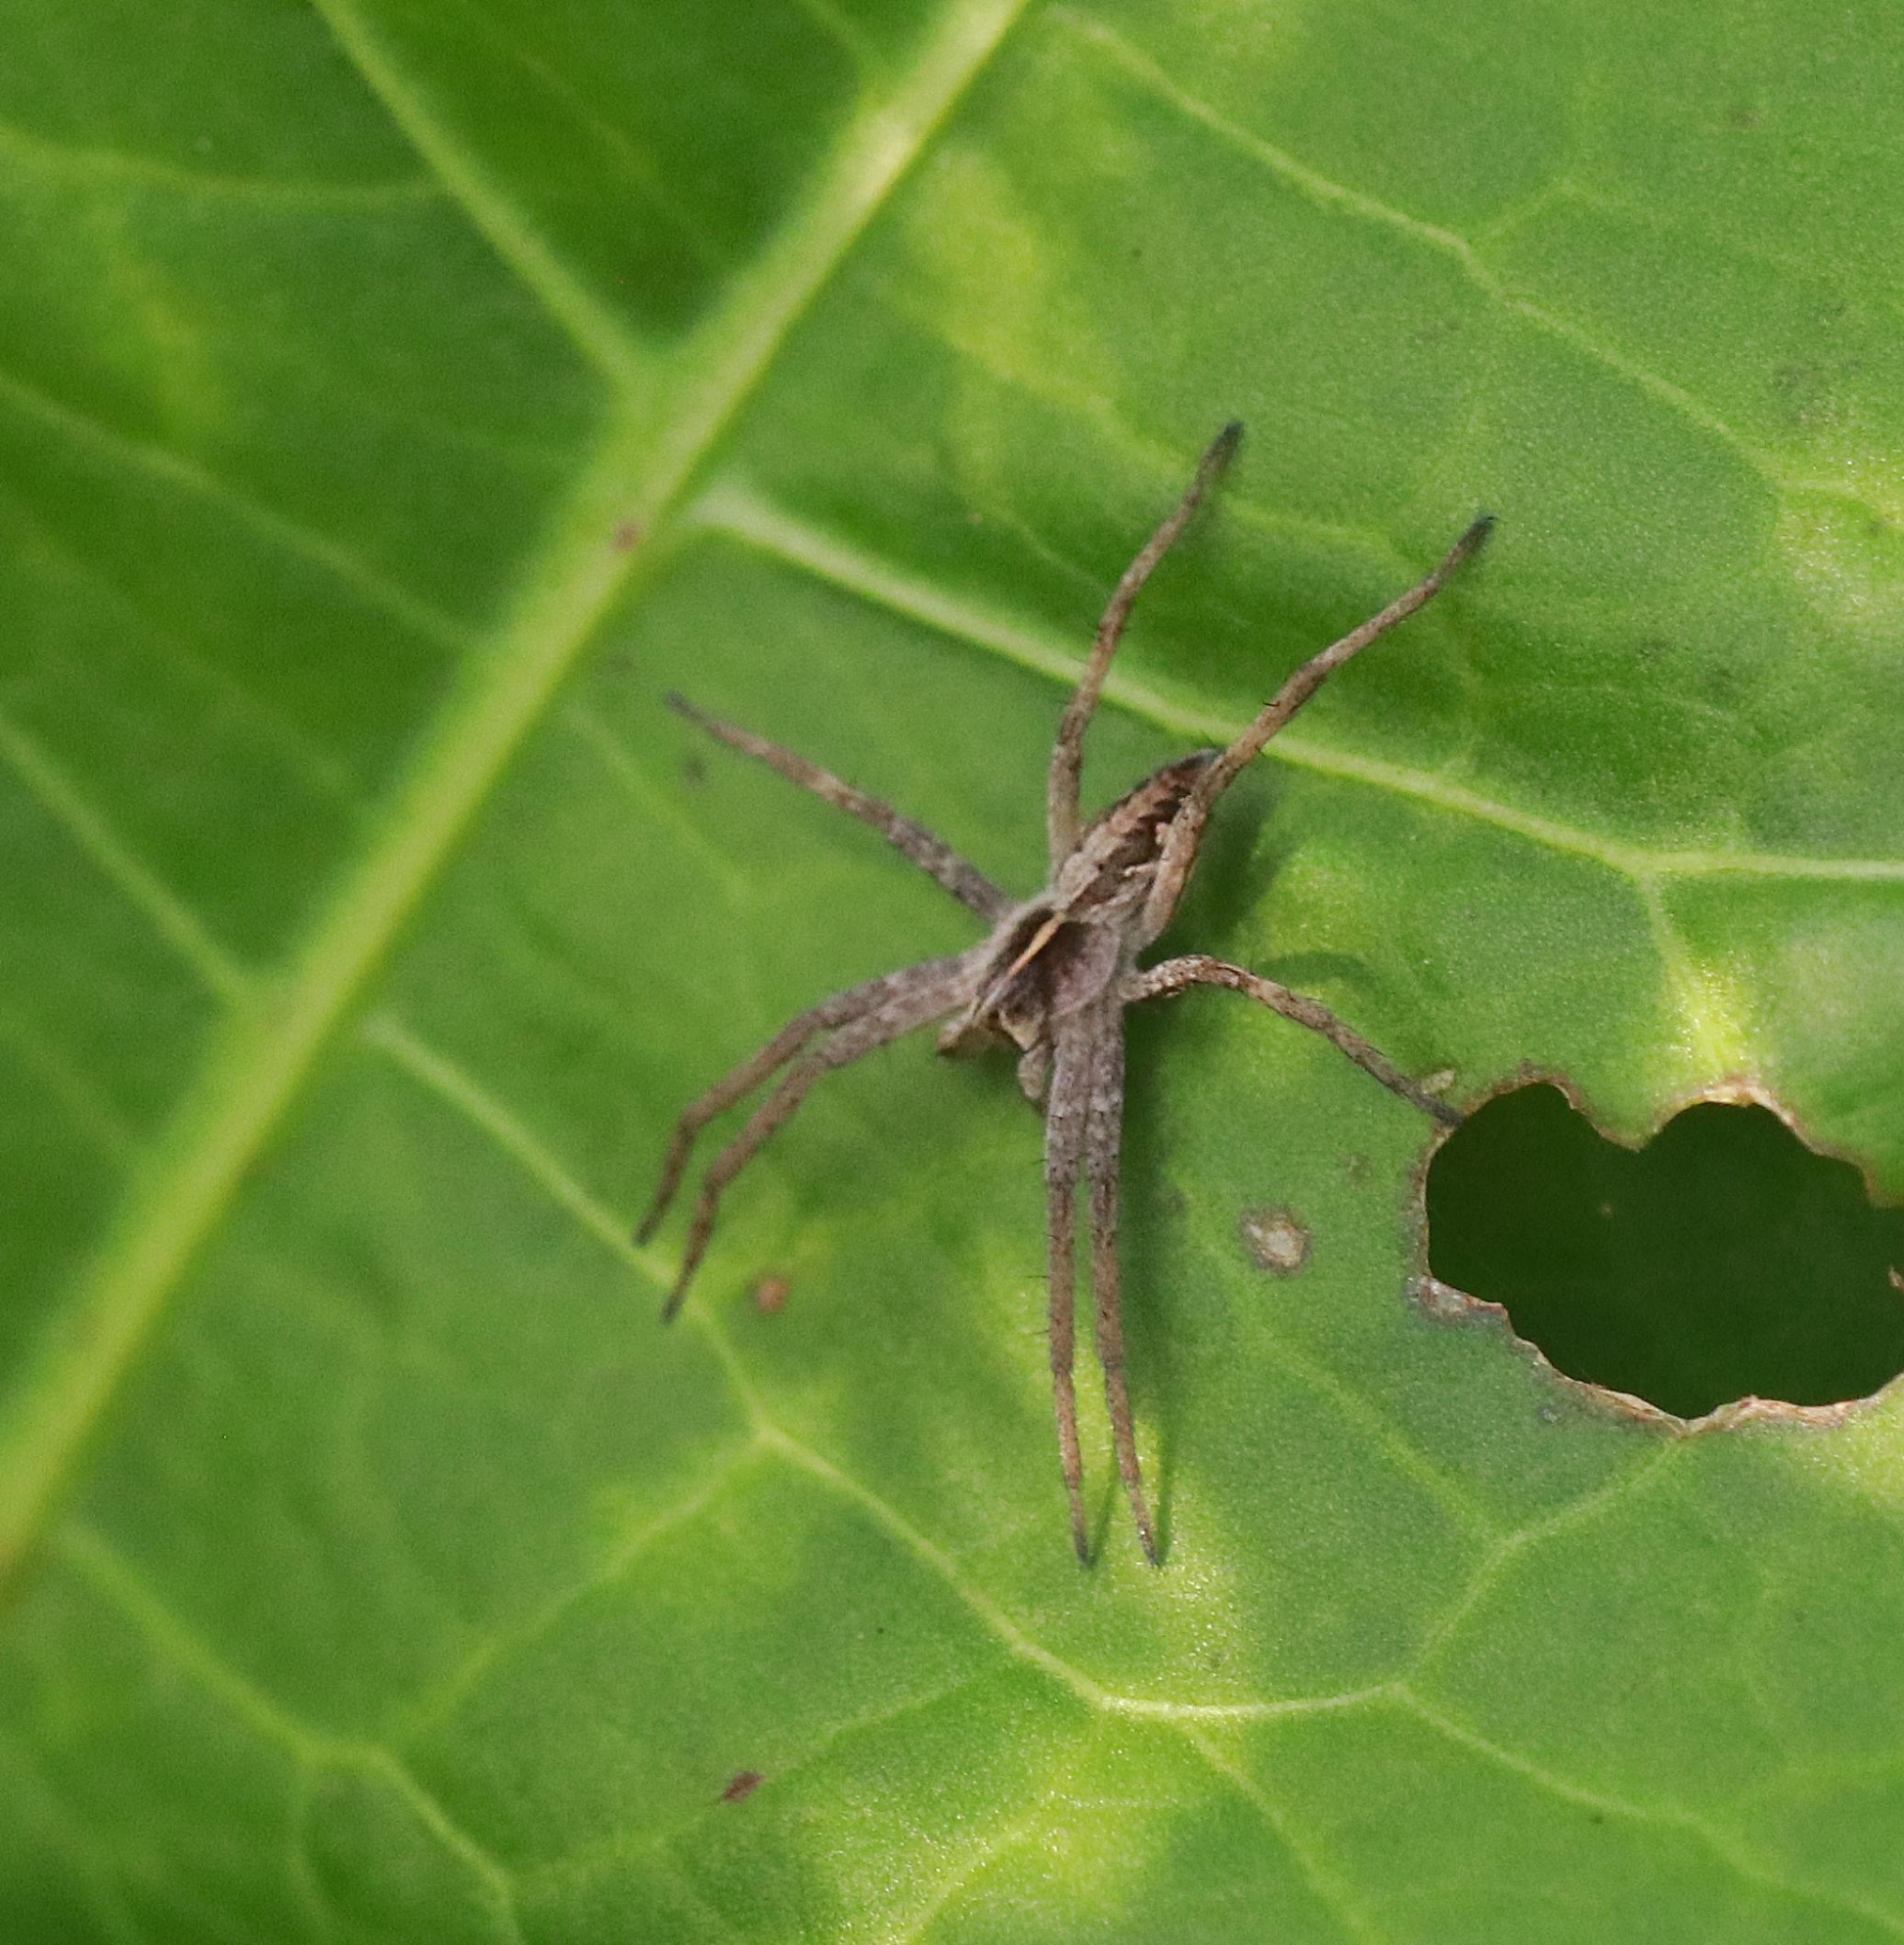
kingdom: Animalia
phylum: Arthropoda
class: Arachnida
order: Araneae
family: Pisauridae
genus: Pisaura
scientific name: Pisaura mirabilis
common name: Almindelig rovedderkop
